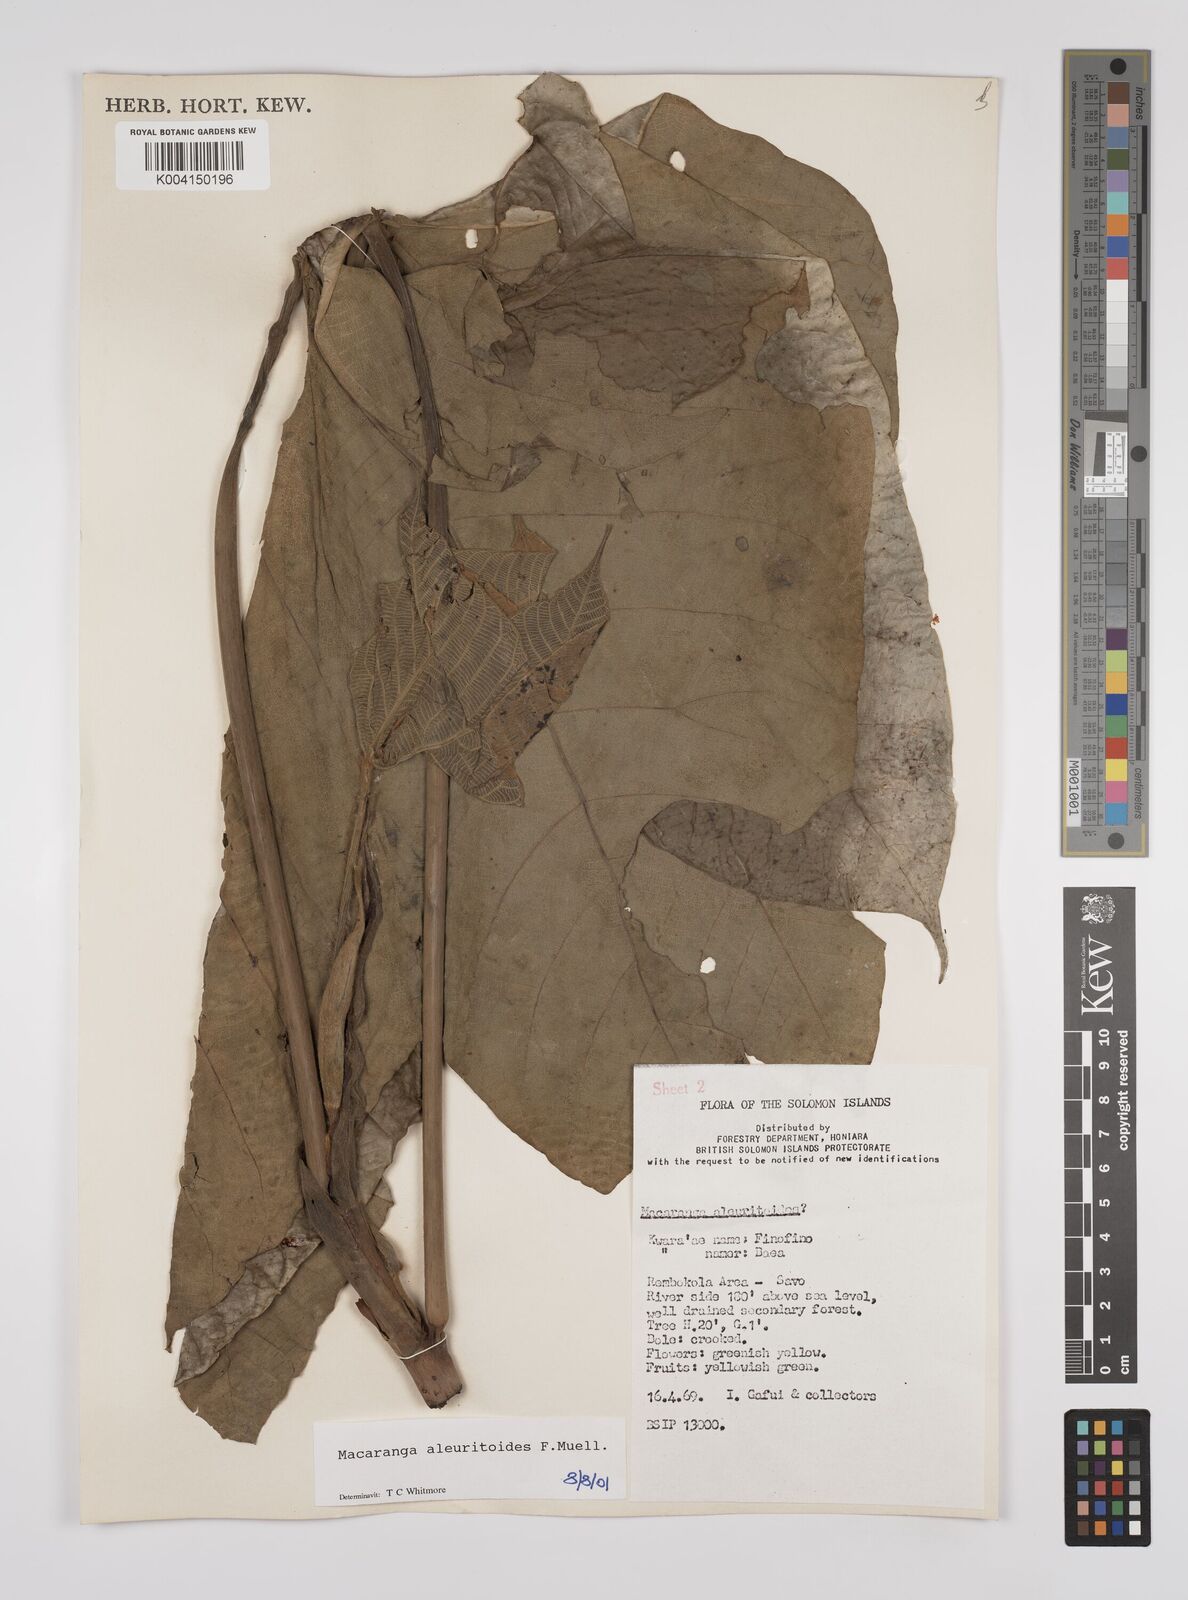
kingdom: Plantae
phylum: Tracheophyta
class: Magnoliopsida
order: Malpighiales
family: Euphorbiaceae
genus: Macaranga
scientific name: Macaranga aleuritoides
